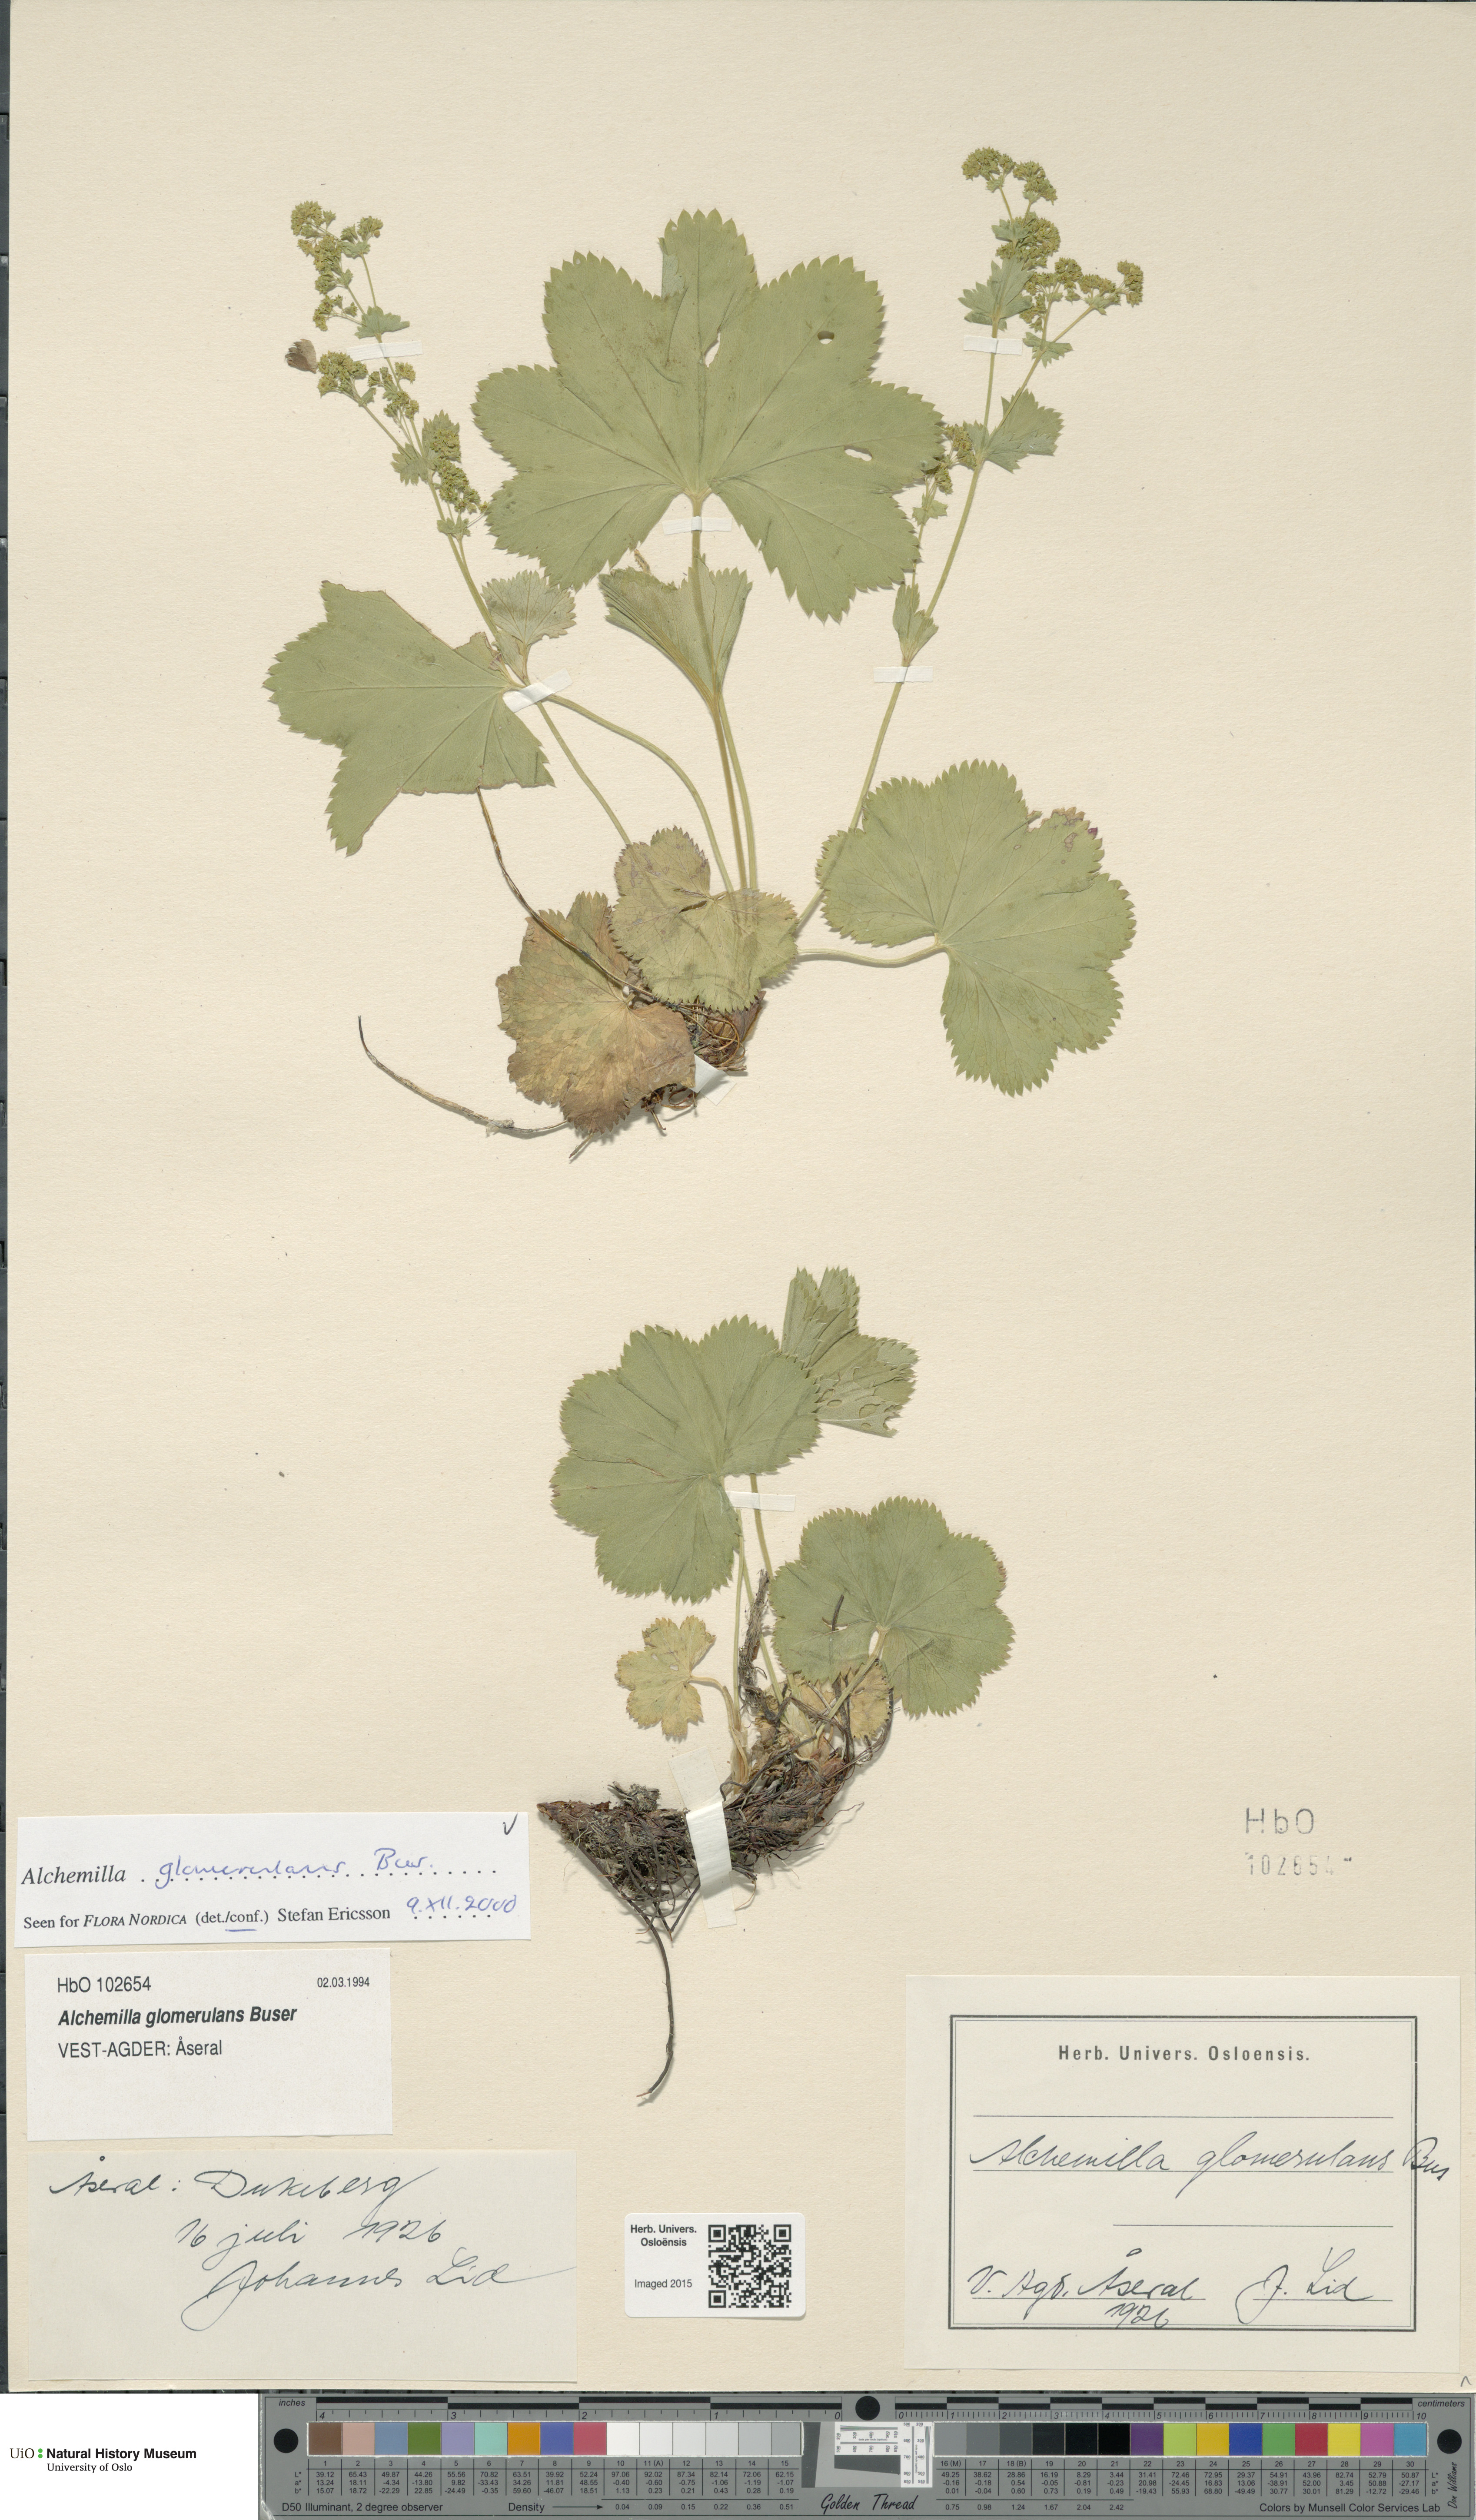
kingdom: Plantae
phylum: Tracheophyta
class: Magnoliopsida
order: Rosales
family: Rosaceae
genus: Alchemilla
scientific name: Alchemilla glomerulans
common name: Clustered lady's mantle
